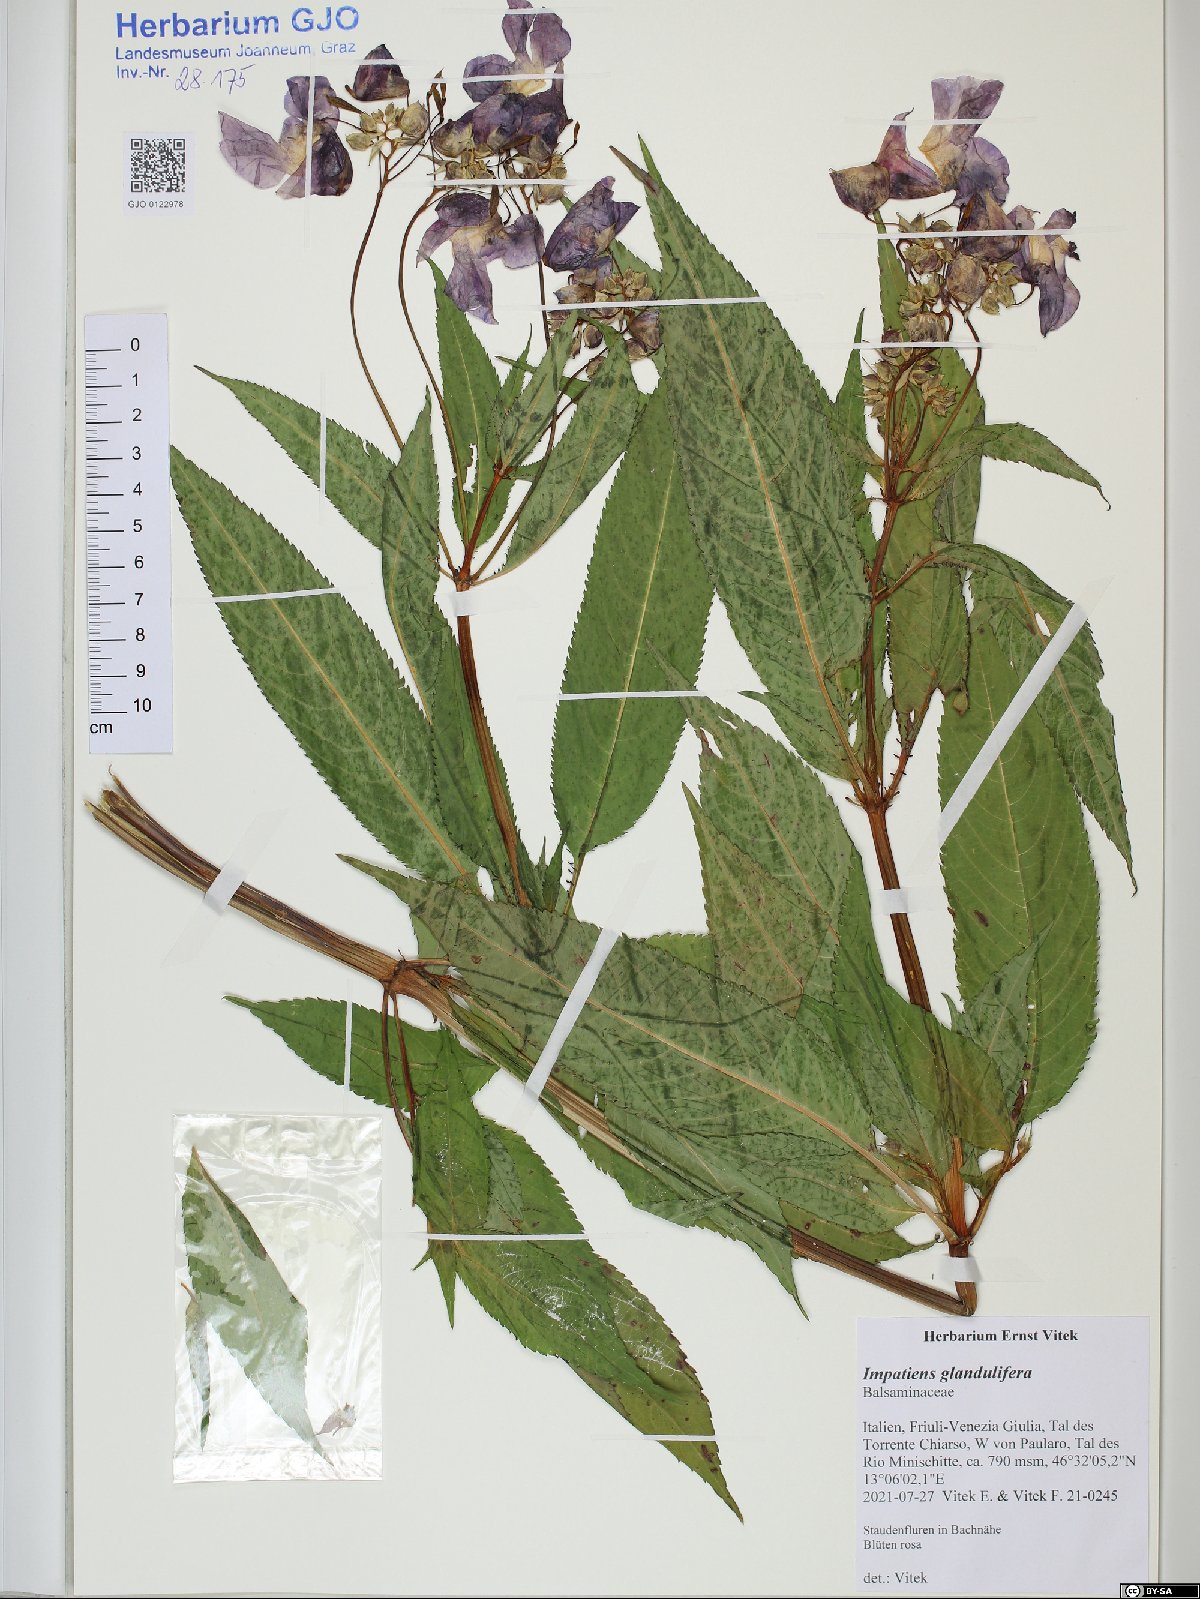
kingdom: Plantae
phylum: Tracheophyta
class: Magnoliopsida
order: Ericales
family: Balsaminaceae
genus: Impatiens
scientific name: Impatiens glandulifera
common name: Himalayan balsam
